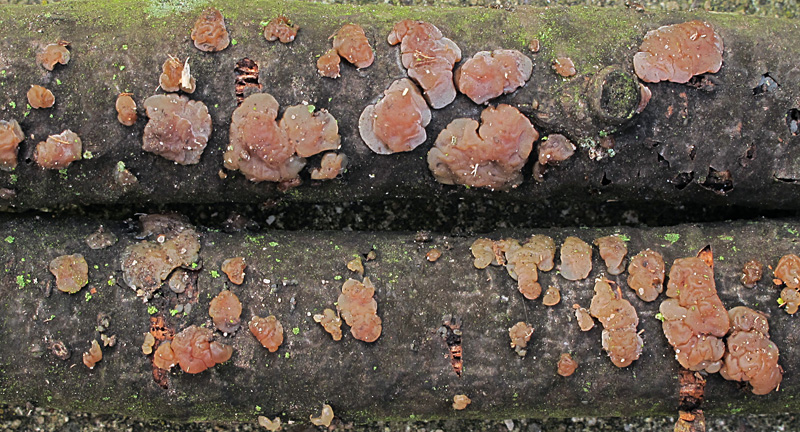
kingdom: Fungi
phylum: Basidiomycota
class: Agaricomycetes
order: Auriculariales
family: Hyaloriaceae
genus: Myxarium
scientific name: Myxarium hyalinum
